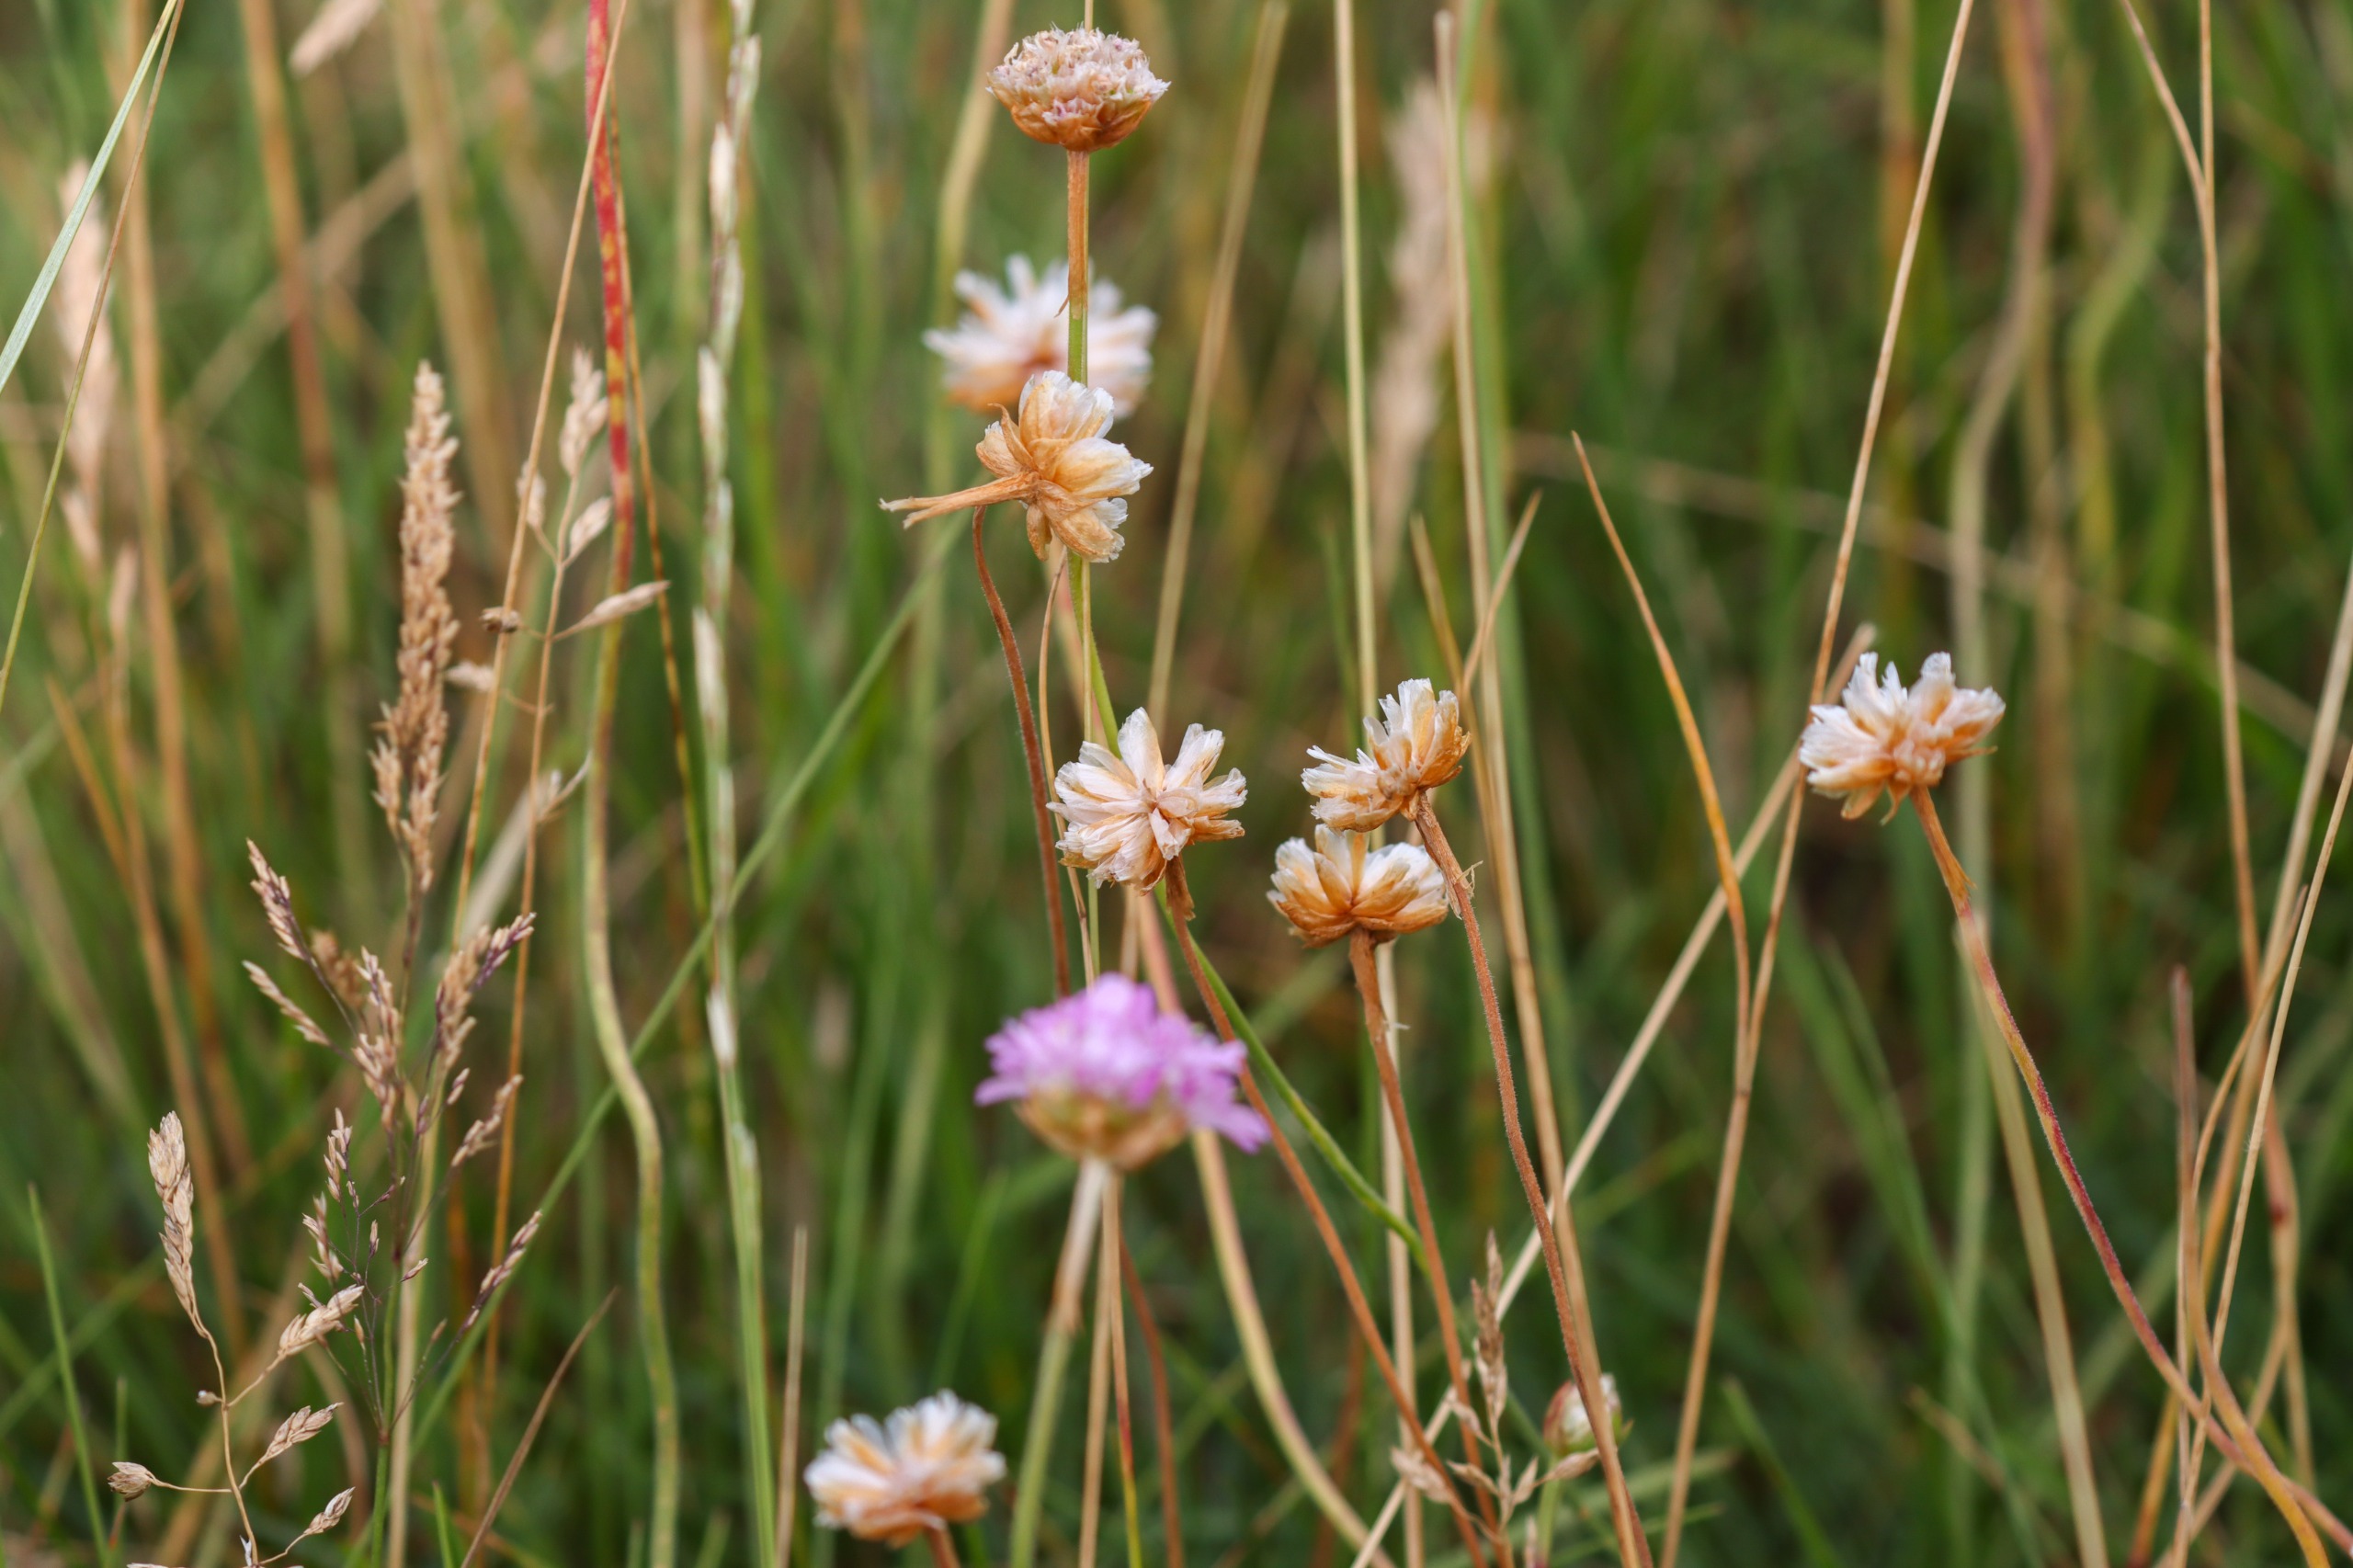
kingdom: Plantae
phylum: Tracheophyta
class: Magnoliopsida
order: Caryophyllales
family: Plumbaginaceae
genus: Armeria
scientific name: Armeria maritima
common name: Engelskgræs
